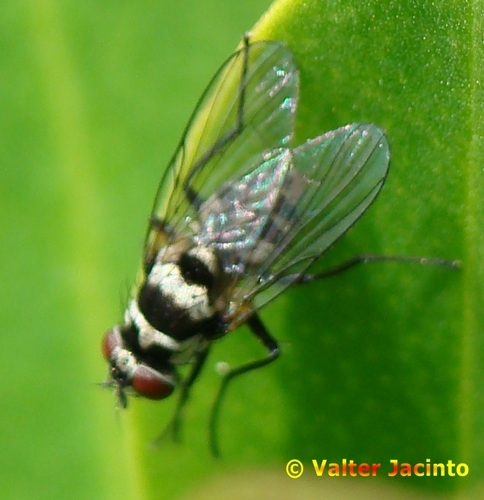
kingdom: Animalia
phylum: Arthropoda
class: Insecta
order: Diptera
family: Muscidae
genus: Limnophora
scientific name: Limnophora obsignata
